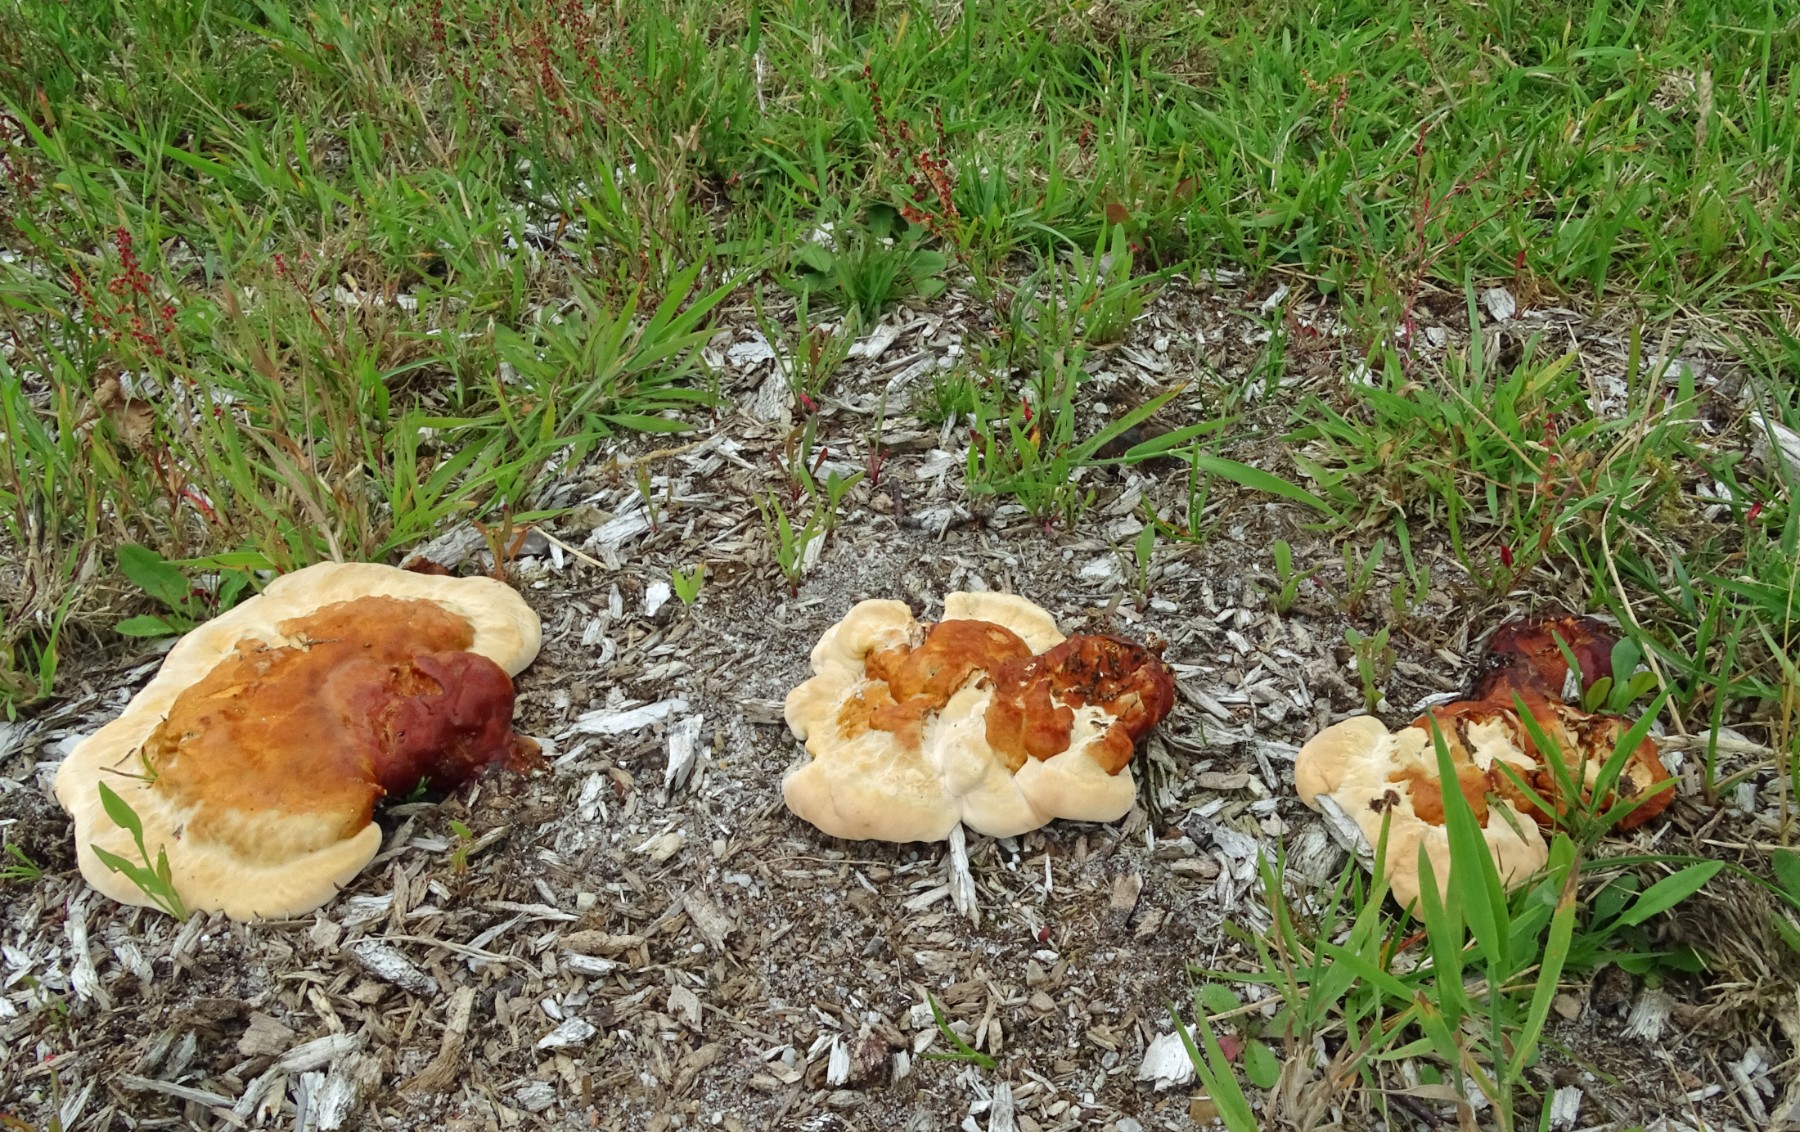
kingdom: Fungi
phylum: Basidiomycota
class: Agaricomycetes
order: Polyporales
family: Polyporaceae
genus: Ganoderma
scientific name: Ganoderma lucidum
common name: skinnende lakporesvamp
